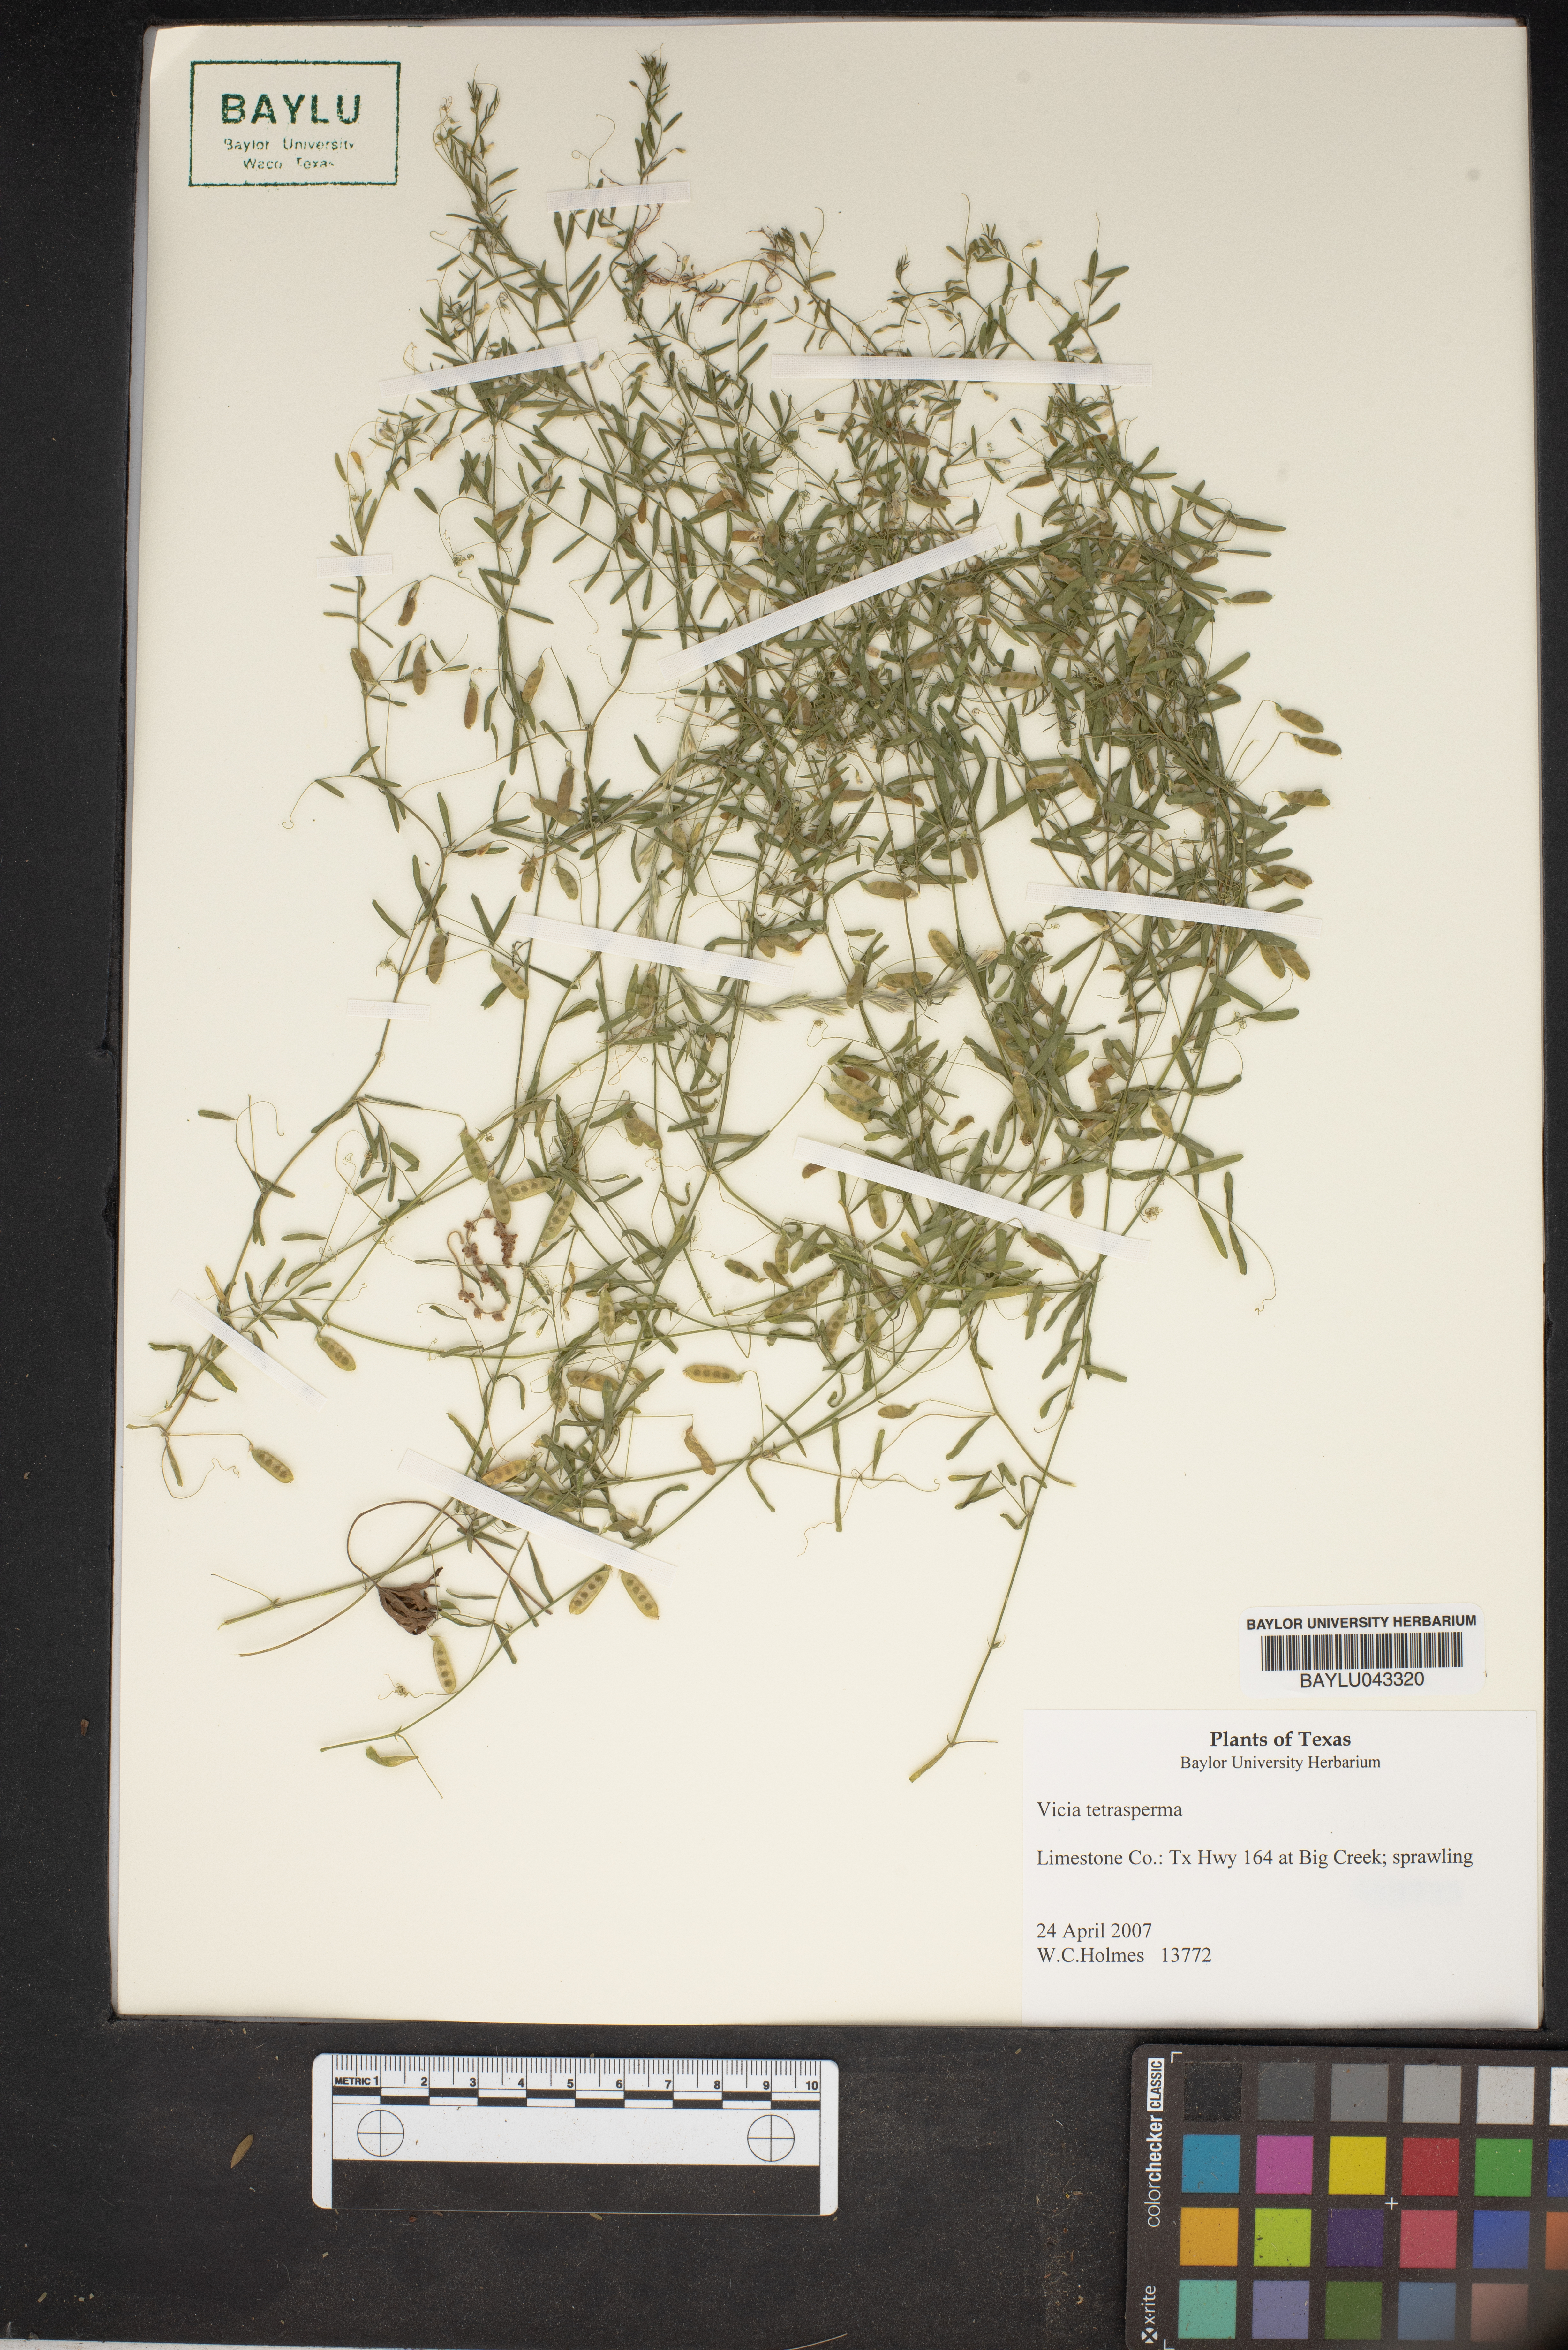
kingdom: Plantae
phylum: Tracheophyta
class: Magnoliopsida
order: Fabales
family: Fabaceae
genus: Vicia
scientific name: Vicia tetrasperma
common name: Smooth tare
